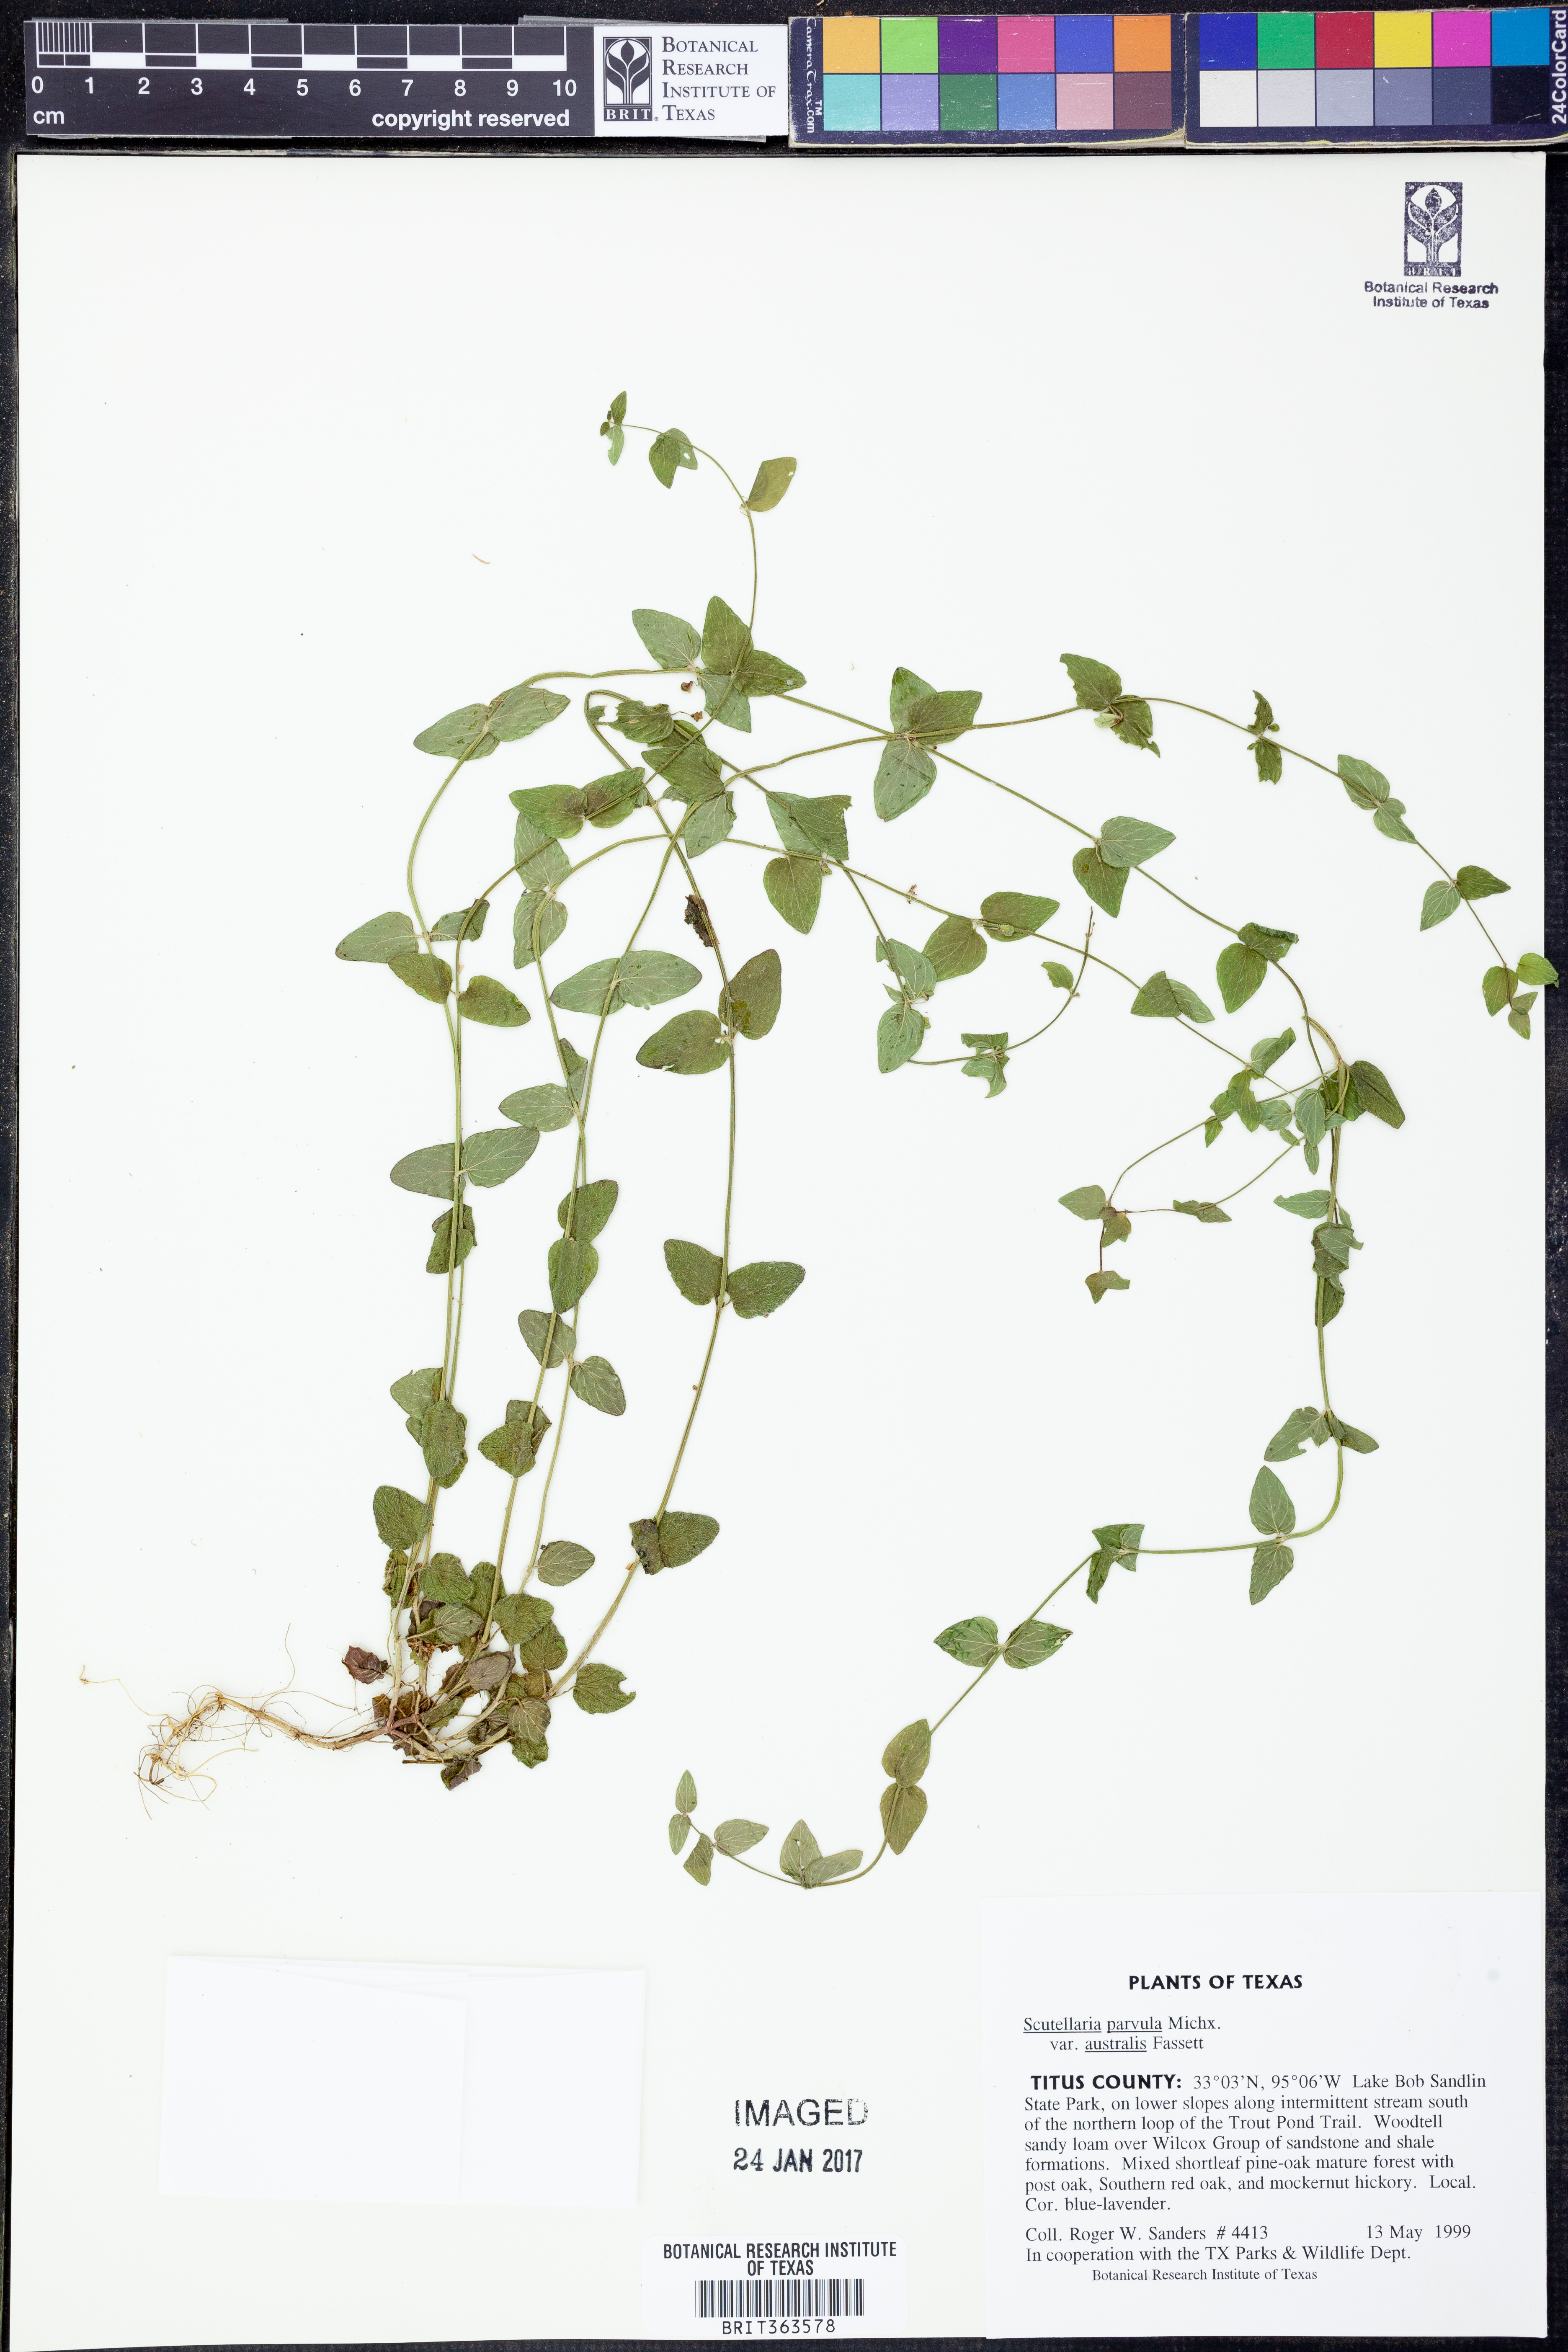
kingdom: Plantae
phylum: Tracheophyta
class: Magnoliopsida
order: Lamiales
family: Lamiaceae
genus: Scutellaria
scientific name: Scutellaria parvula
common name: Little scullcap
